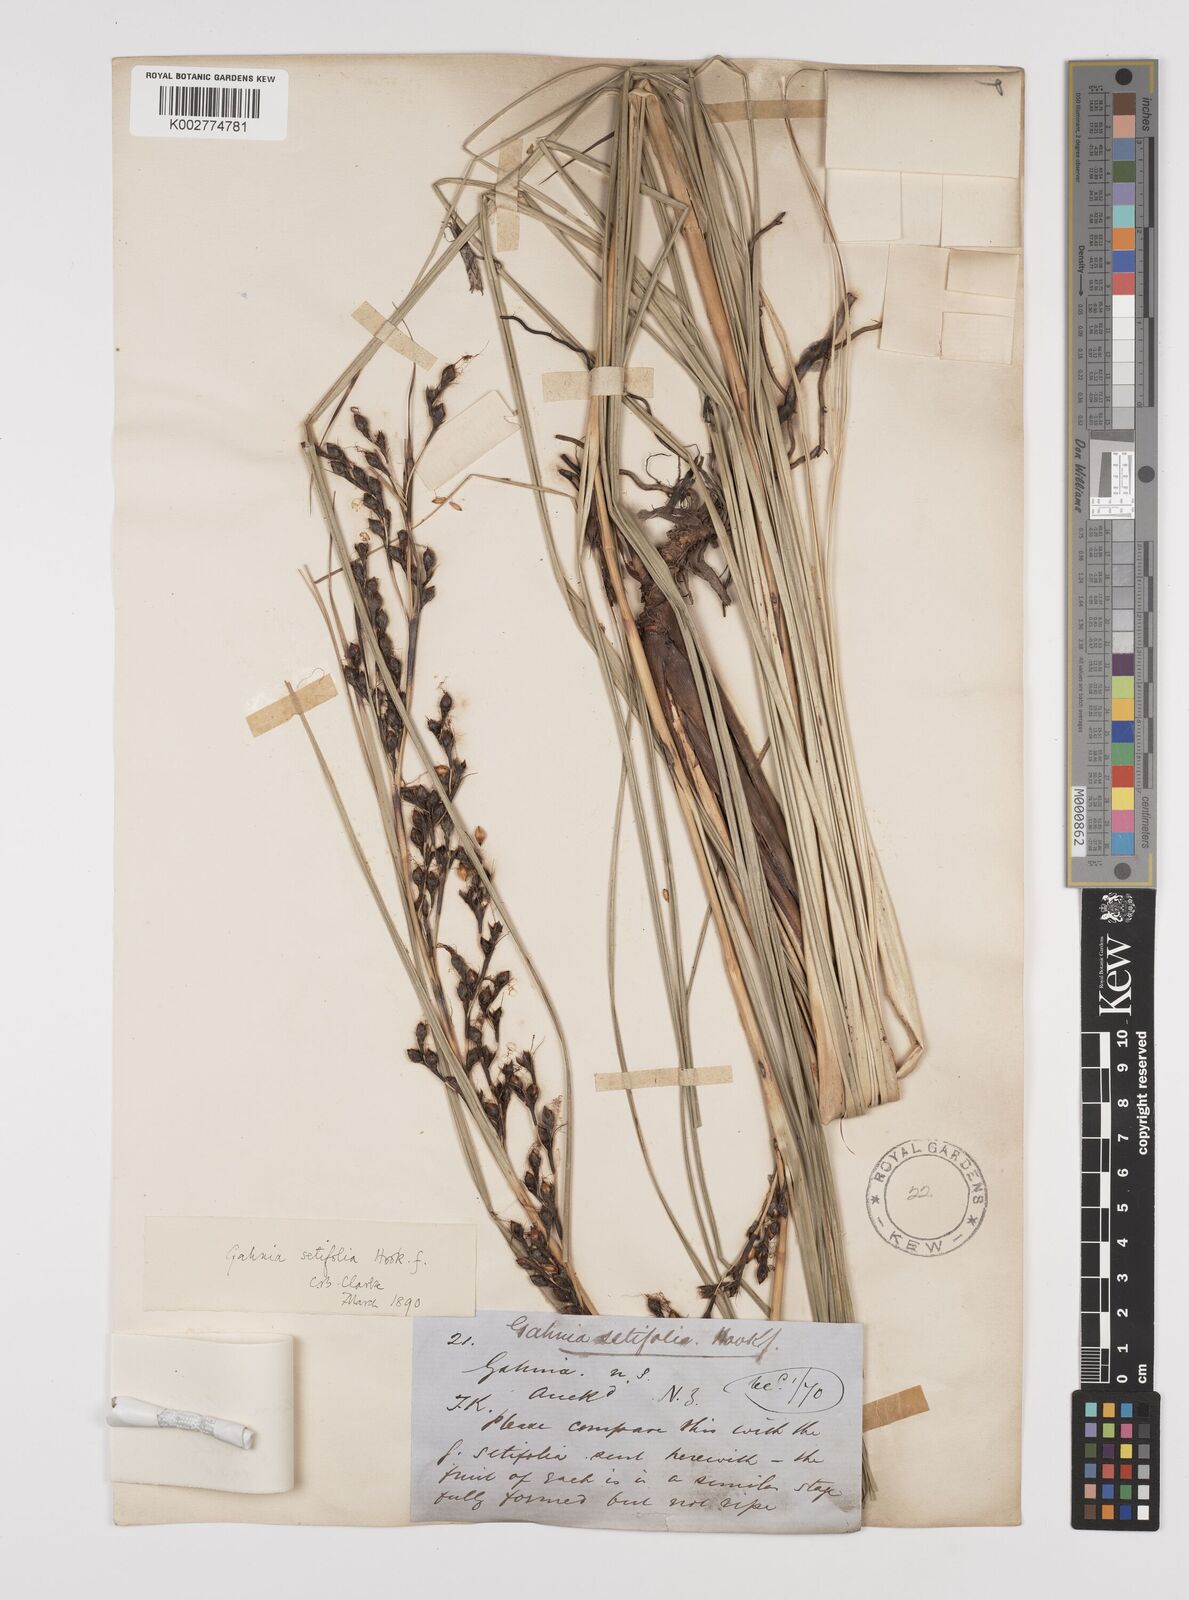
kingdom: Plantae
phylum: Tracheophyta
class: Liliopsida
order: Poales
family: Cyperaceae
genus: Gahnia
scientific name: Gahnia pauciflora
